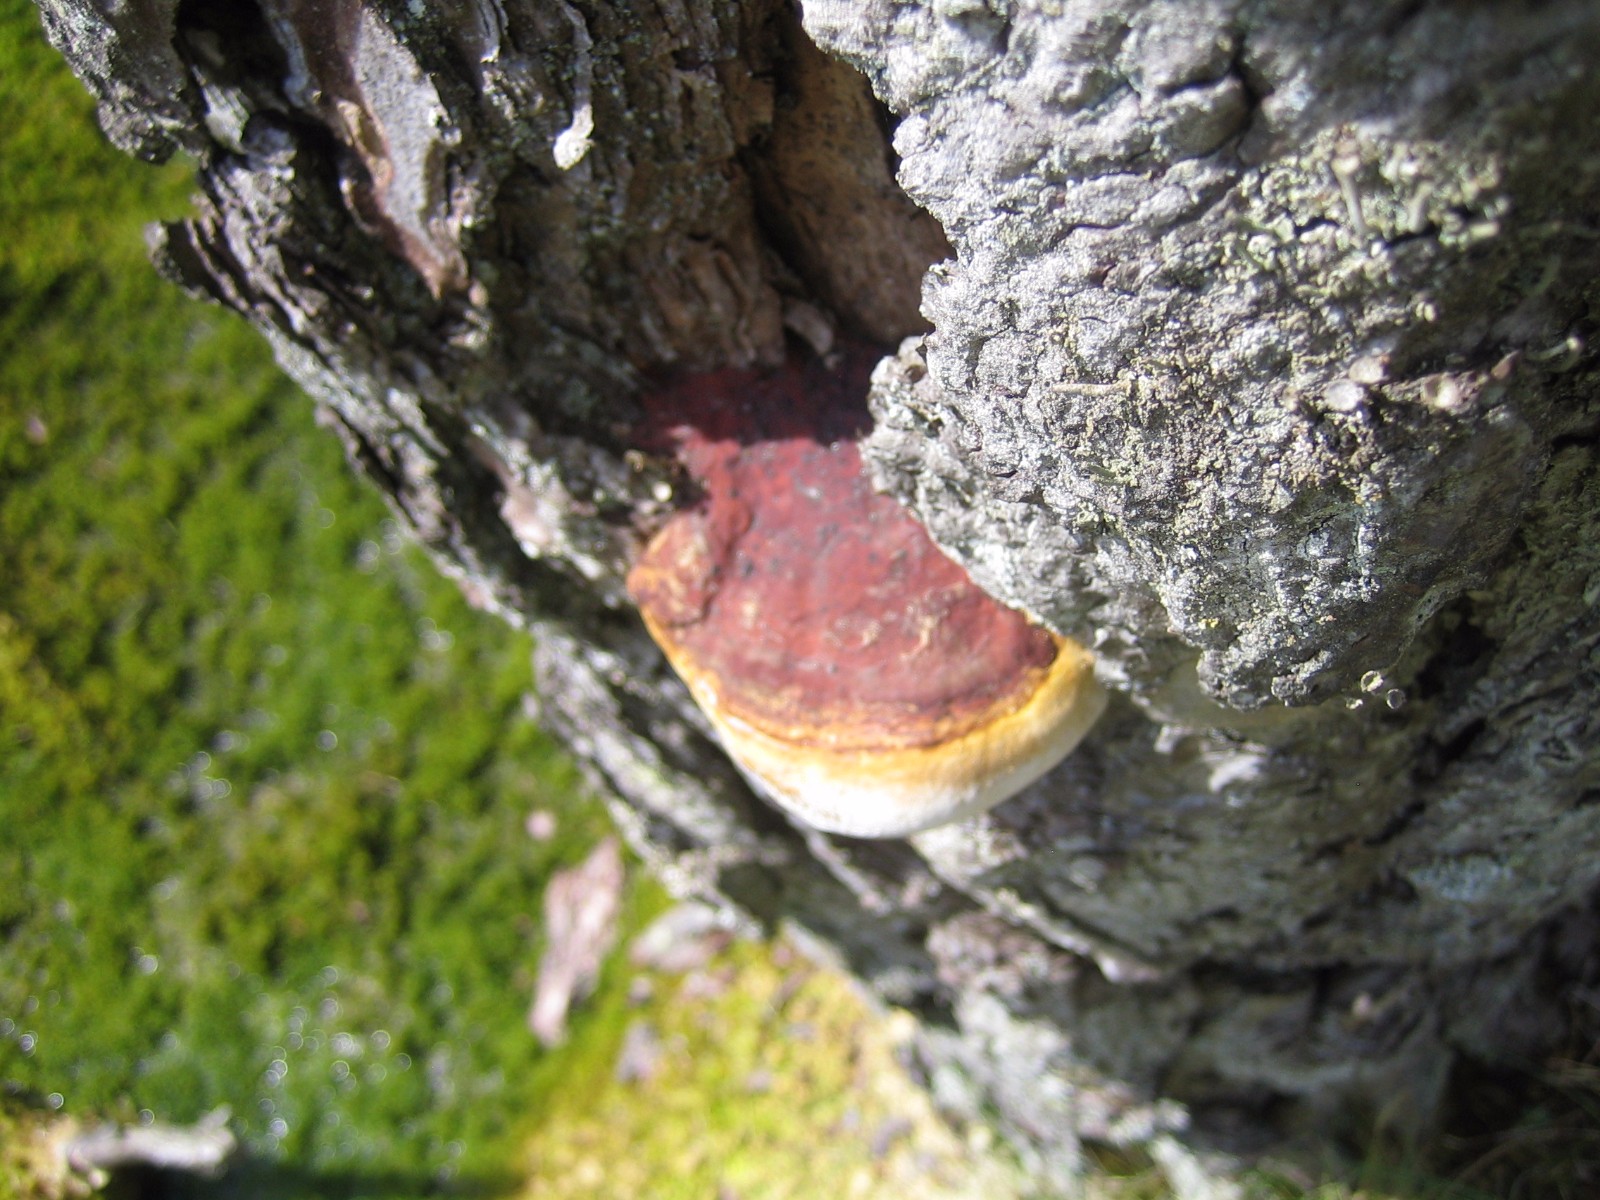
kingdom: Fungi
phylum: Basidiomycota
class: Agaricomycetes
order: Polyporales
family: Fomitopsidaceae
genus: Fomitopsis
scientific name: Fomitopsis pinicola
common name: randbæltet hovporesvamp
